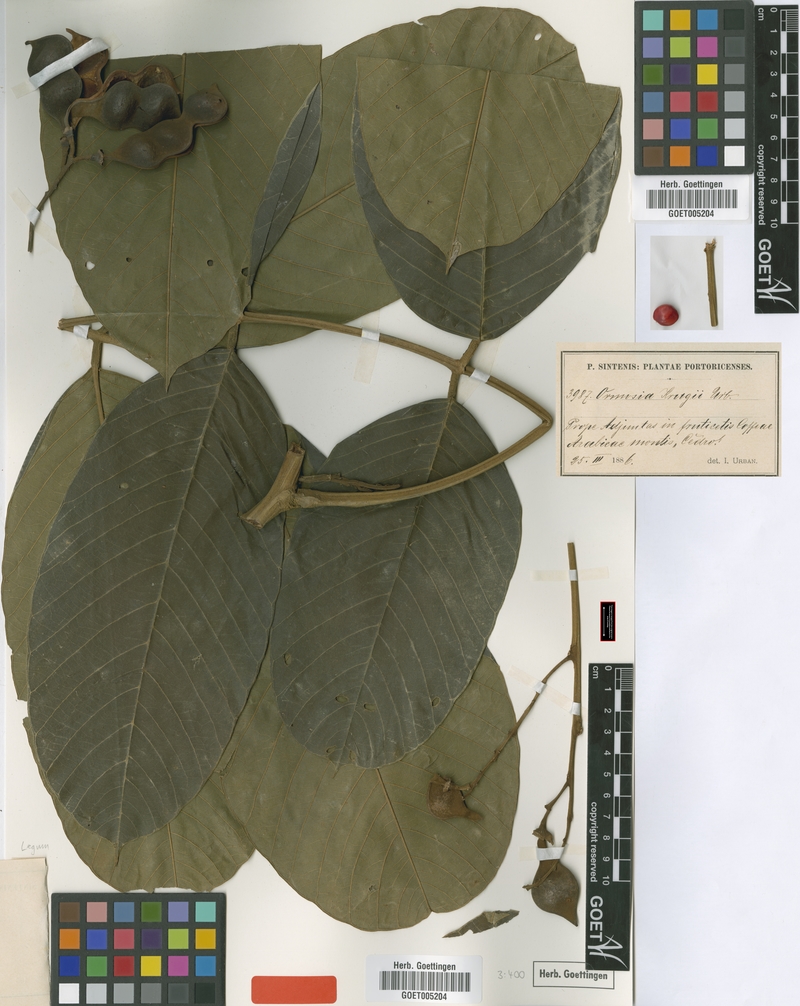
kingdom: Plantae
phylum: Tracheophyta
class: Magnoliopsida
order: Fabales
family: Fabaceae
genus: Ormosia
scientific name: Ormosia krugii
